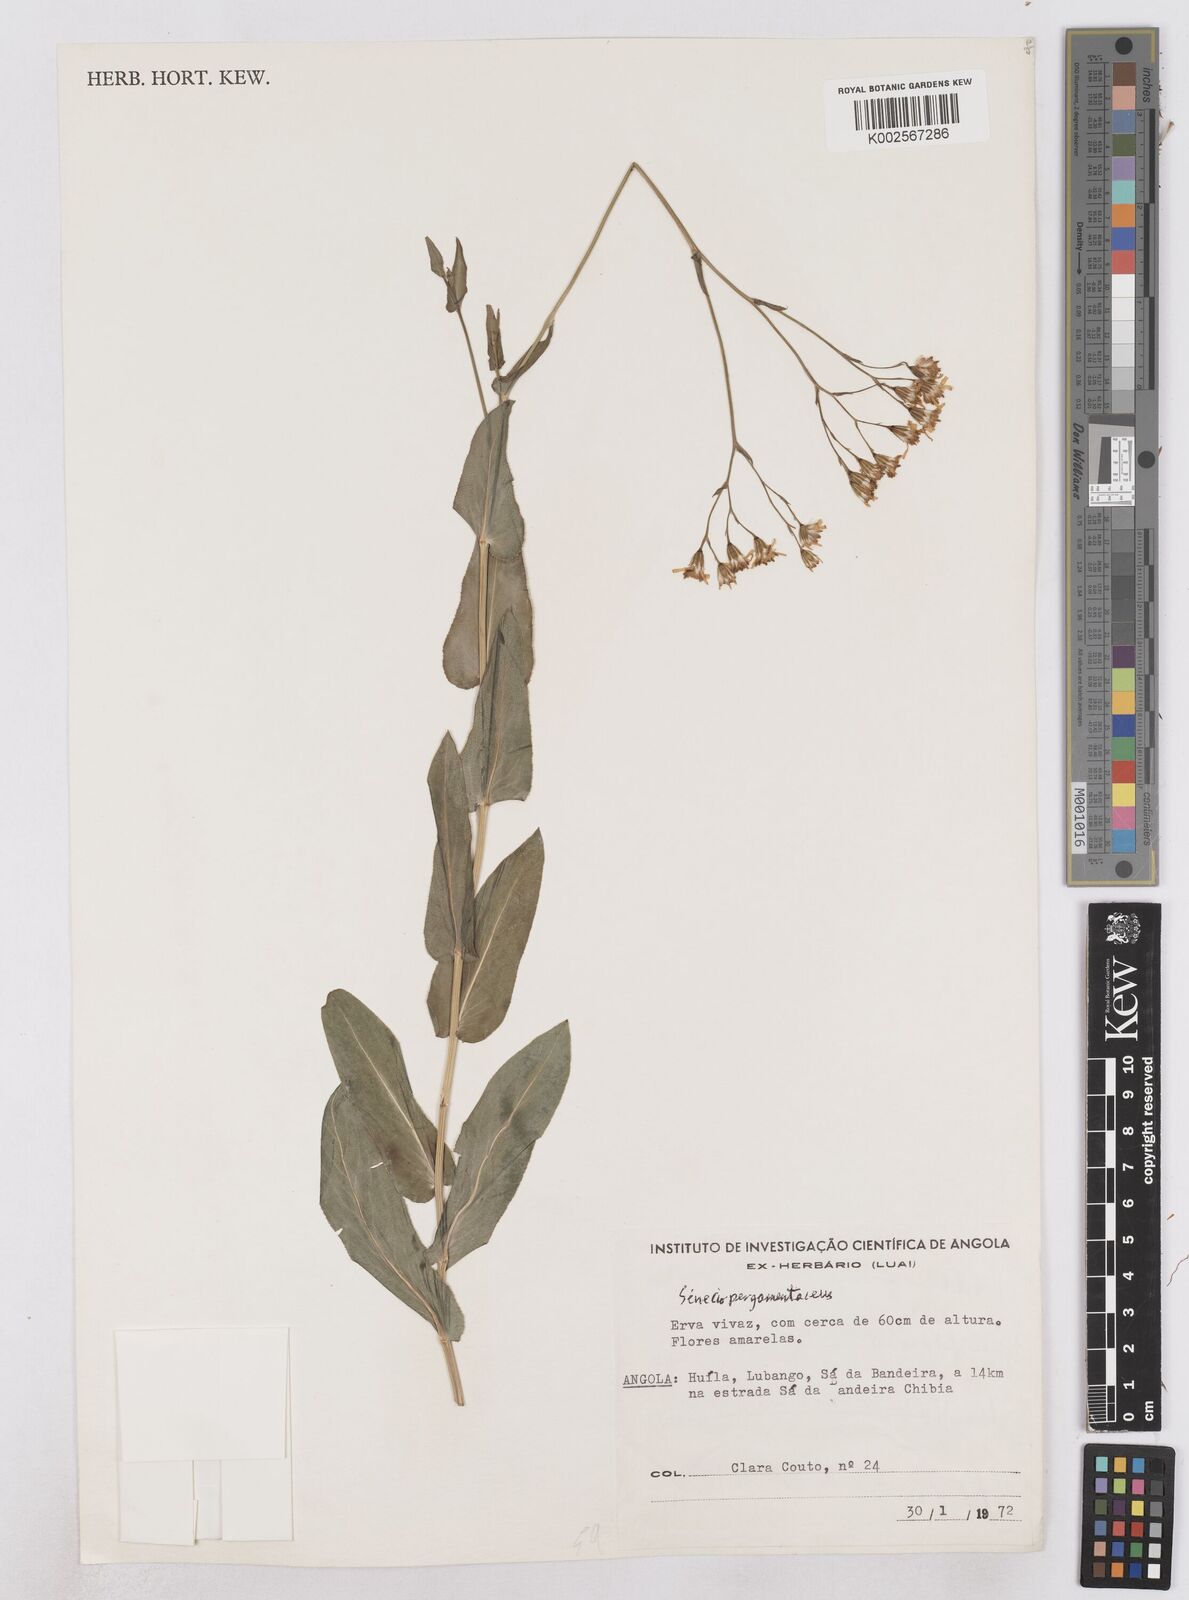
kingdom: Plantae
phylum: Tracheophyta
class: Magnoliopsida
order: Asterales
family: Asteraceae
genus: Senecio
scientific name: Senecio latifolius
